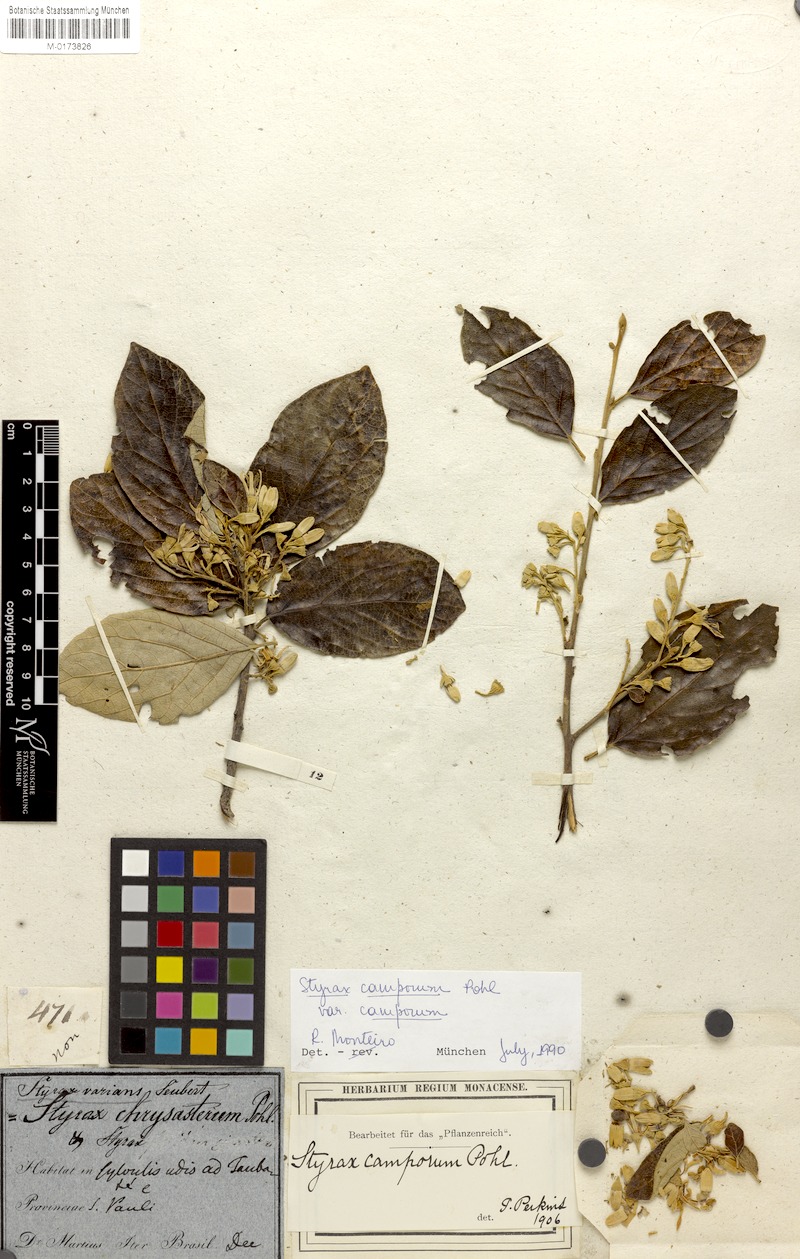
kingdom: Plantae
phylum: Tracheophyta
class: Magnoliopsida
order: Ericales
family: Styracaceae
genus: Styrax
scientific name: Styrax camporum
